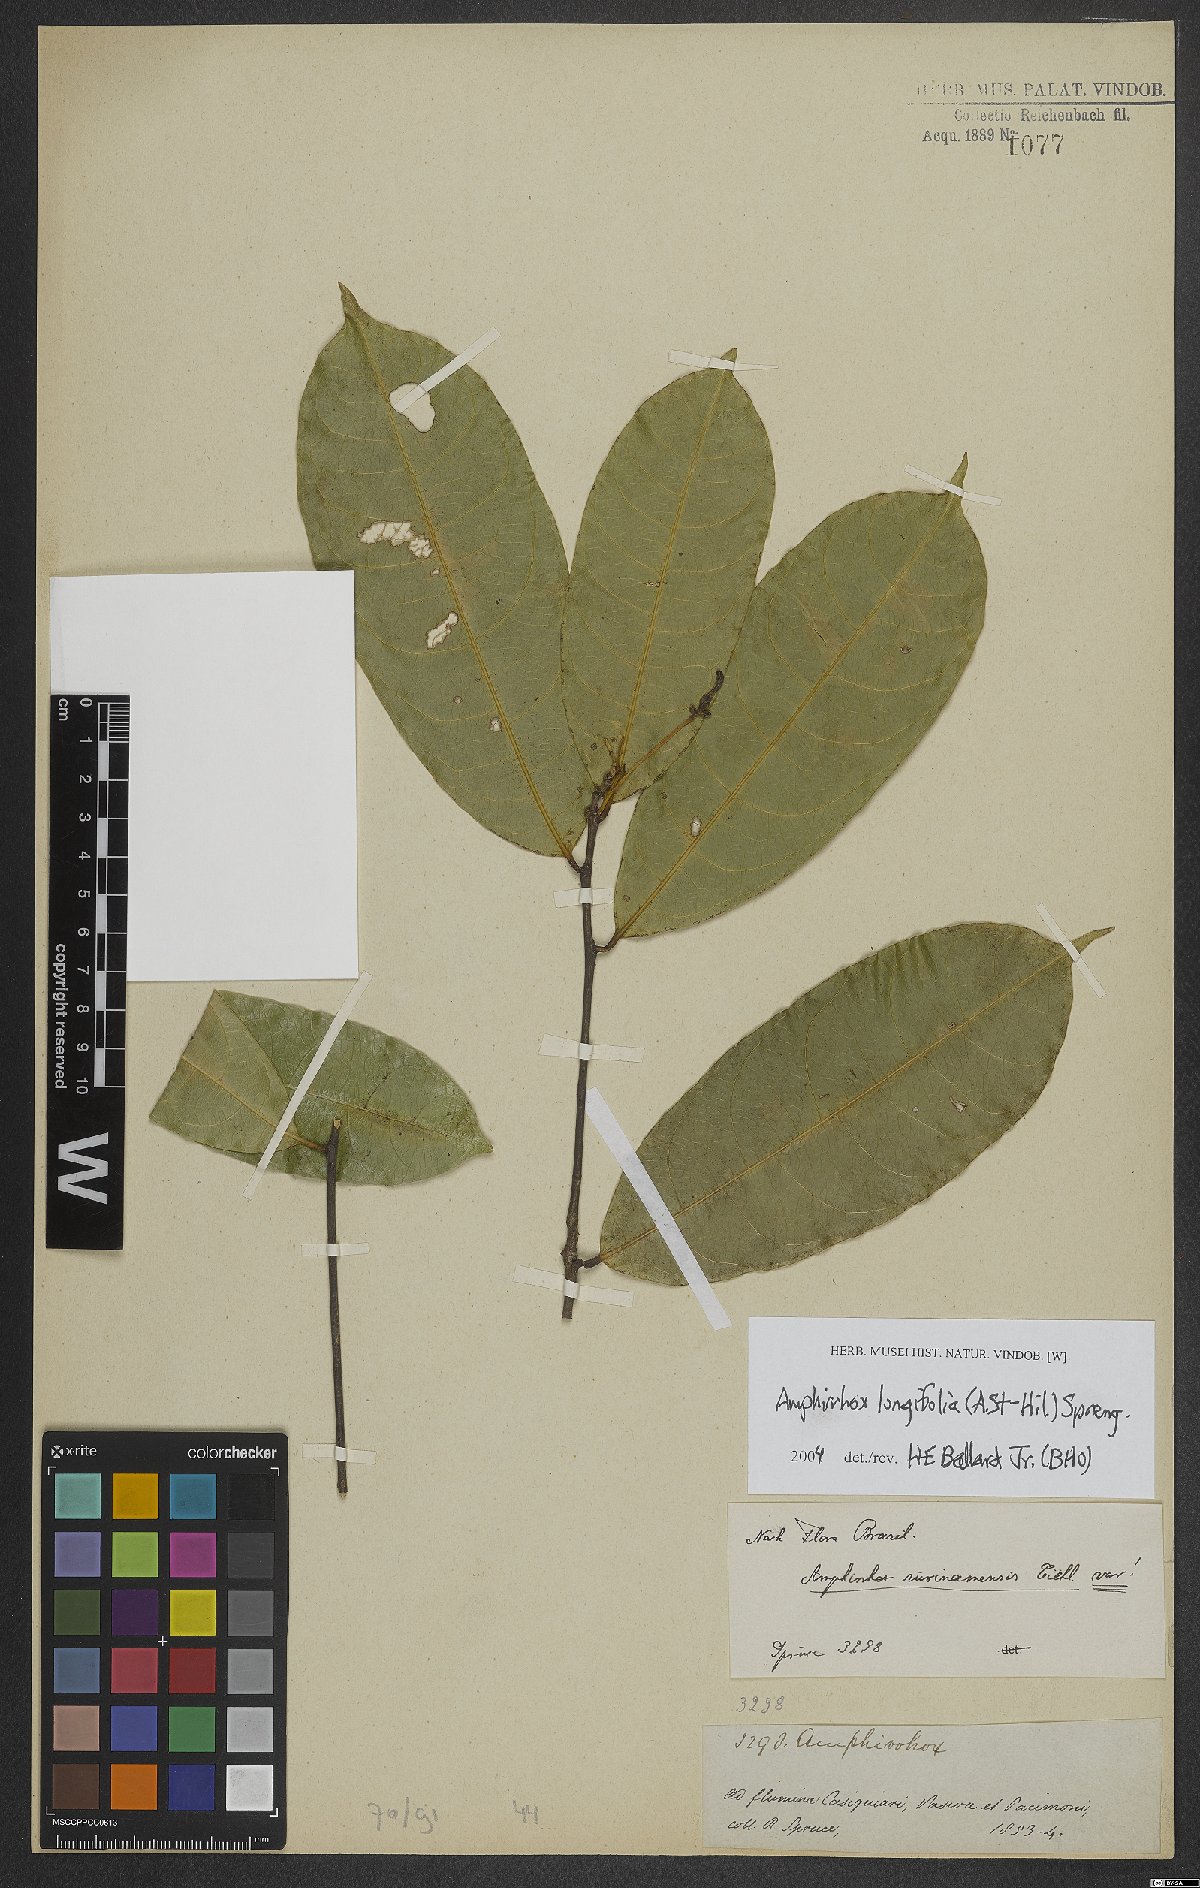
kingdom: Plantae
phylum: Tracheophyta
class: Magnoliopsida
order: Malpighiales
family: Violaceae
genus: Amphirrhox
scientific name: Amphirrhox longifolia
